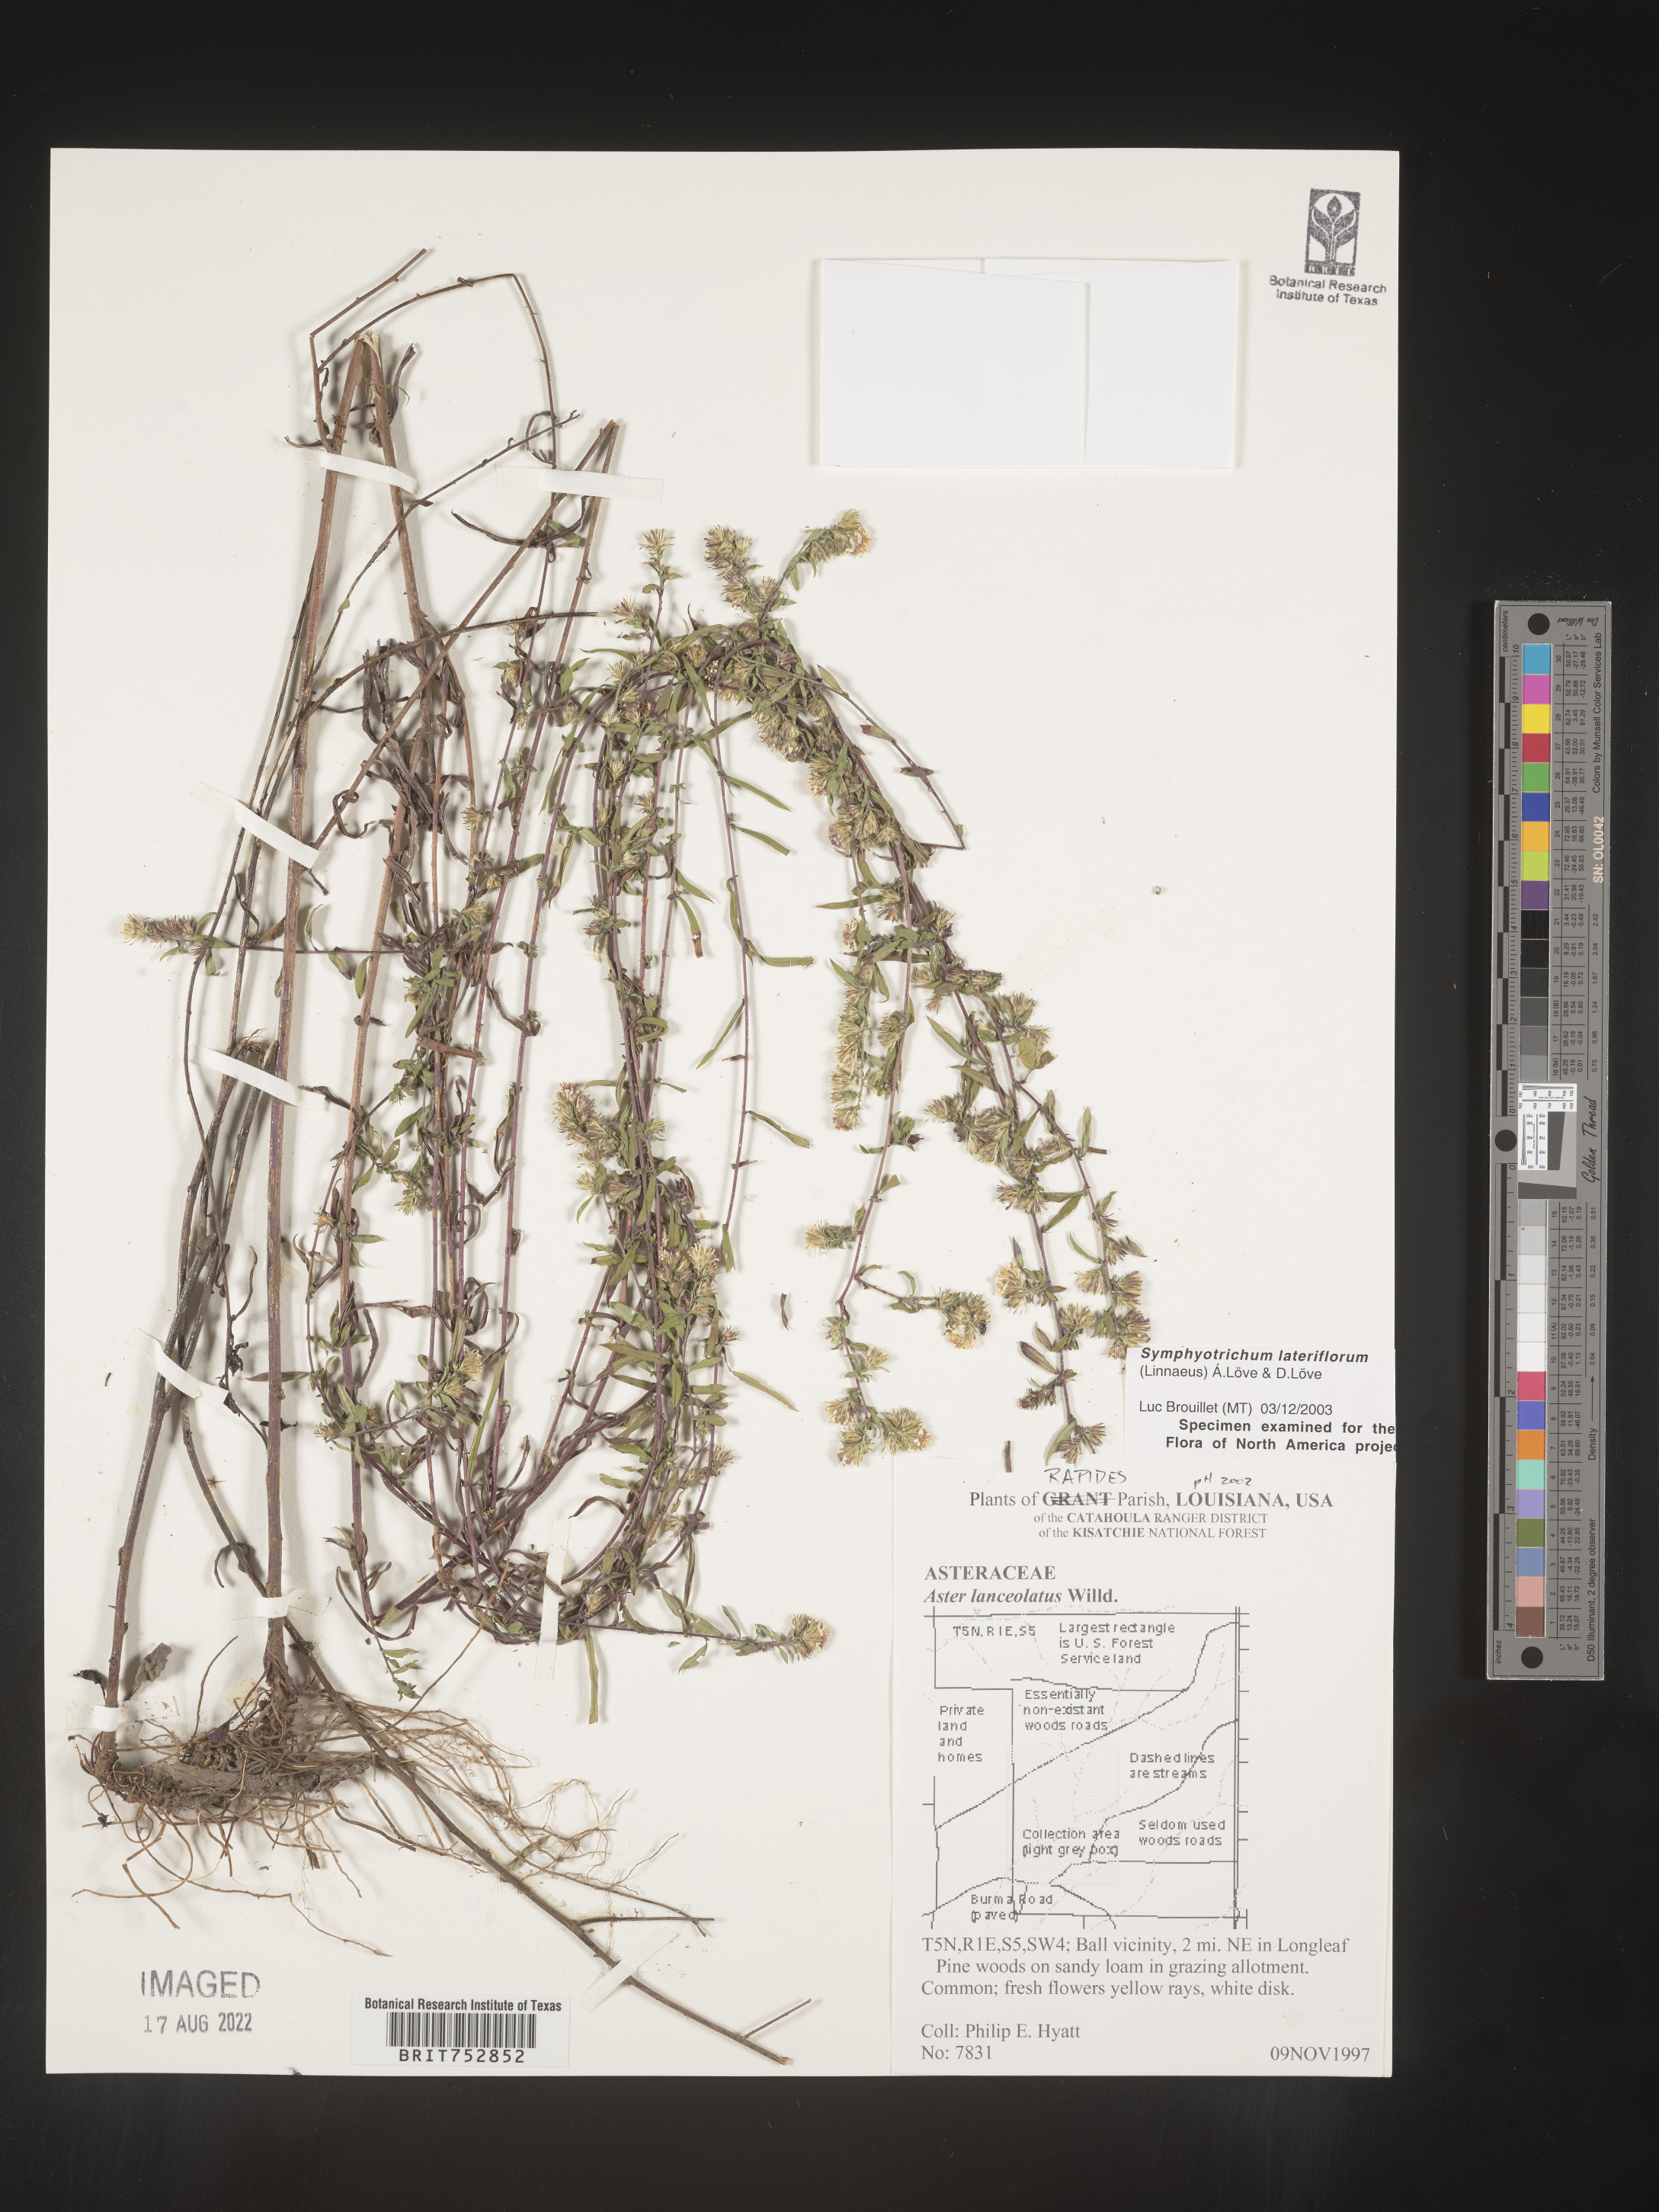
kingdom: Plantae
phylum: Tracheophyta
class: Magnoliopsida
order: Asterales
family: Asteraceae
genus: Symphyotrichum
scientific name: Symphyotrichum lateriflorum
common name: Calico aster
